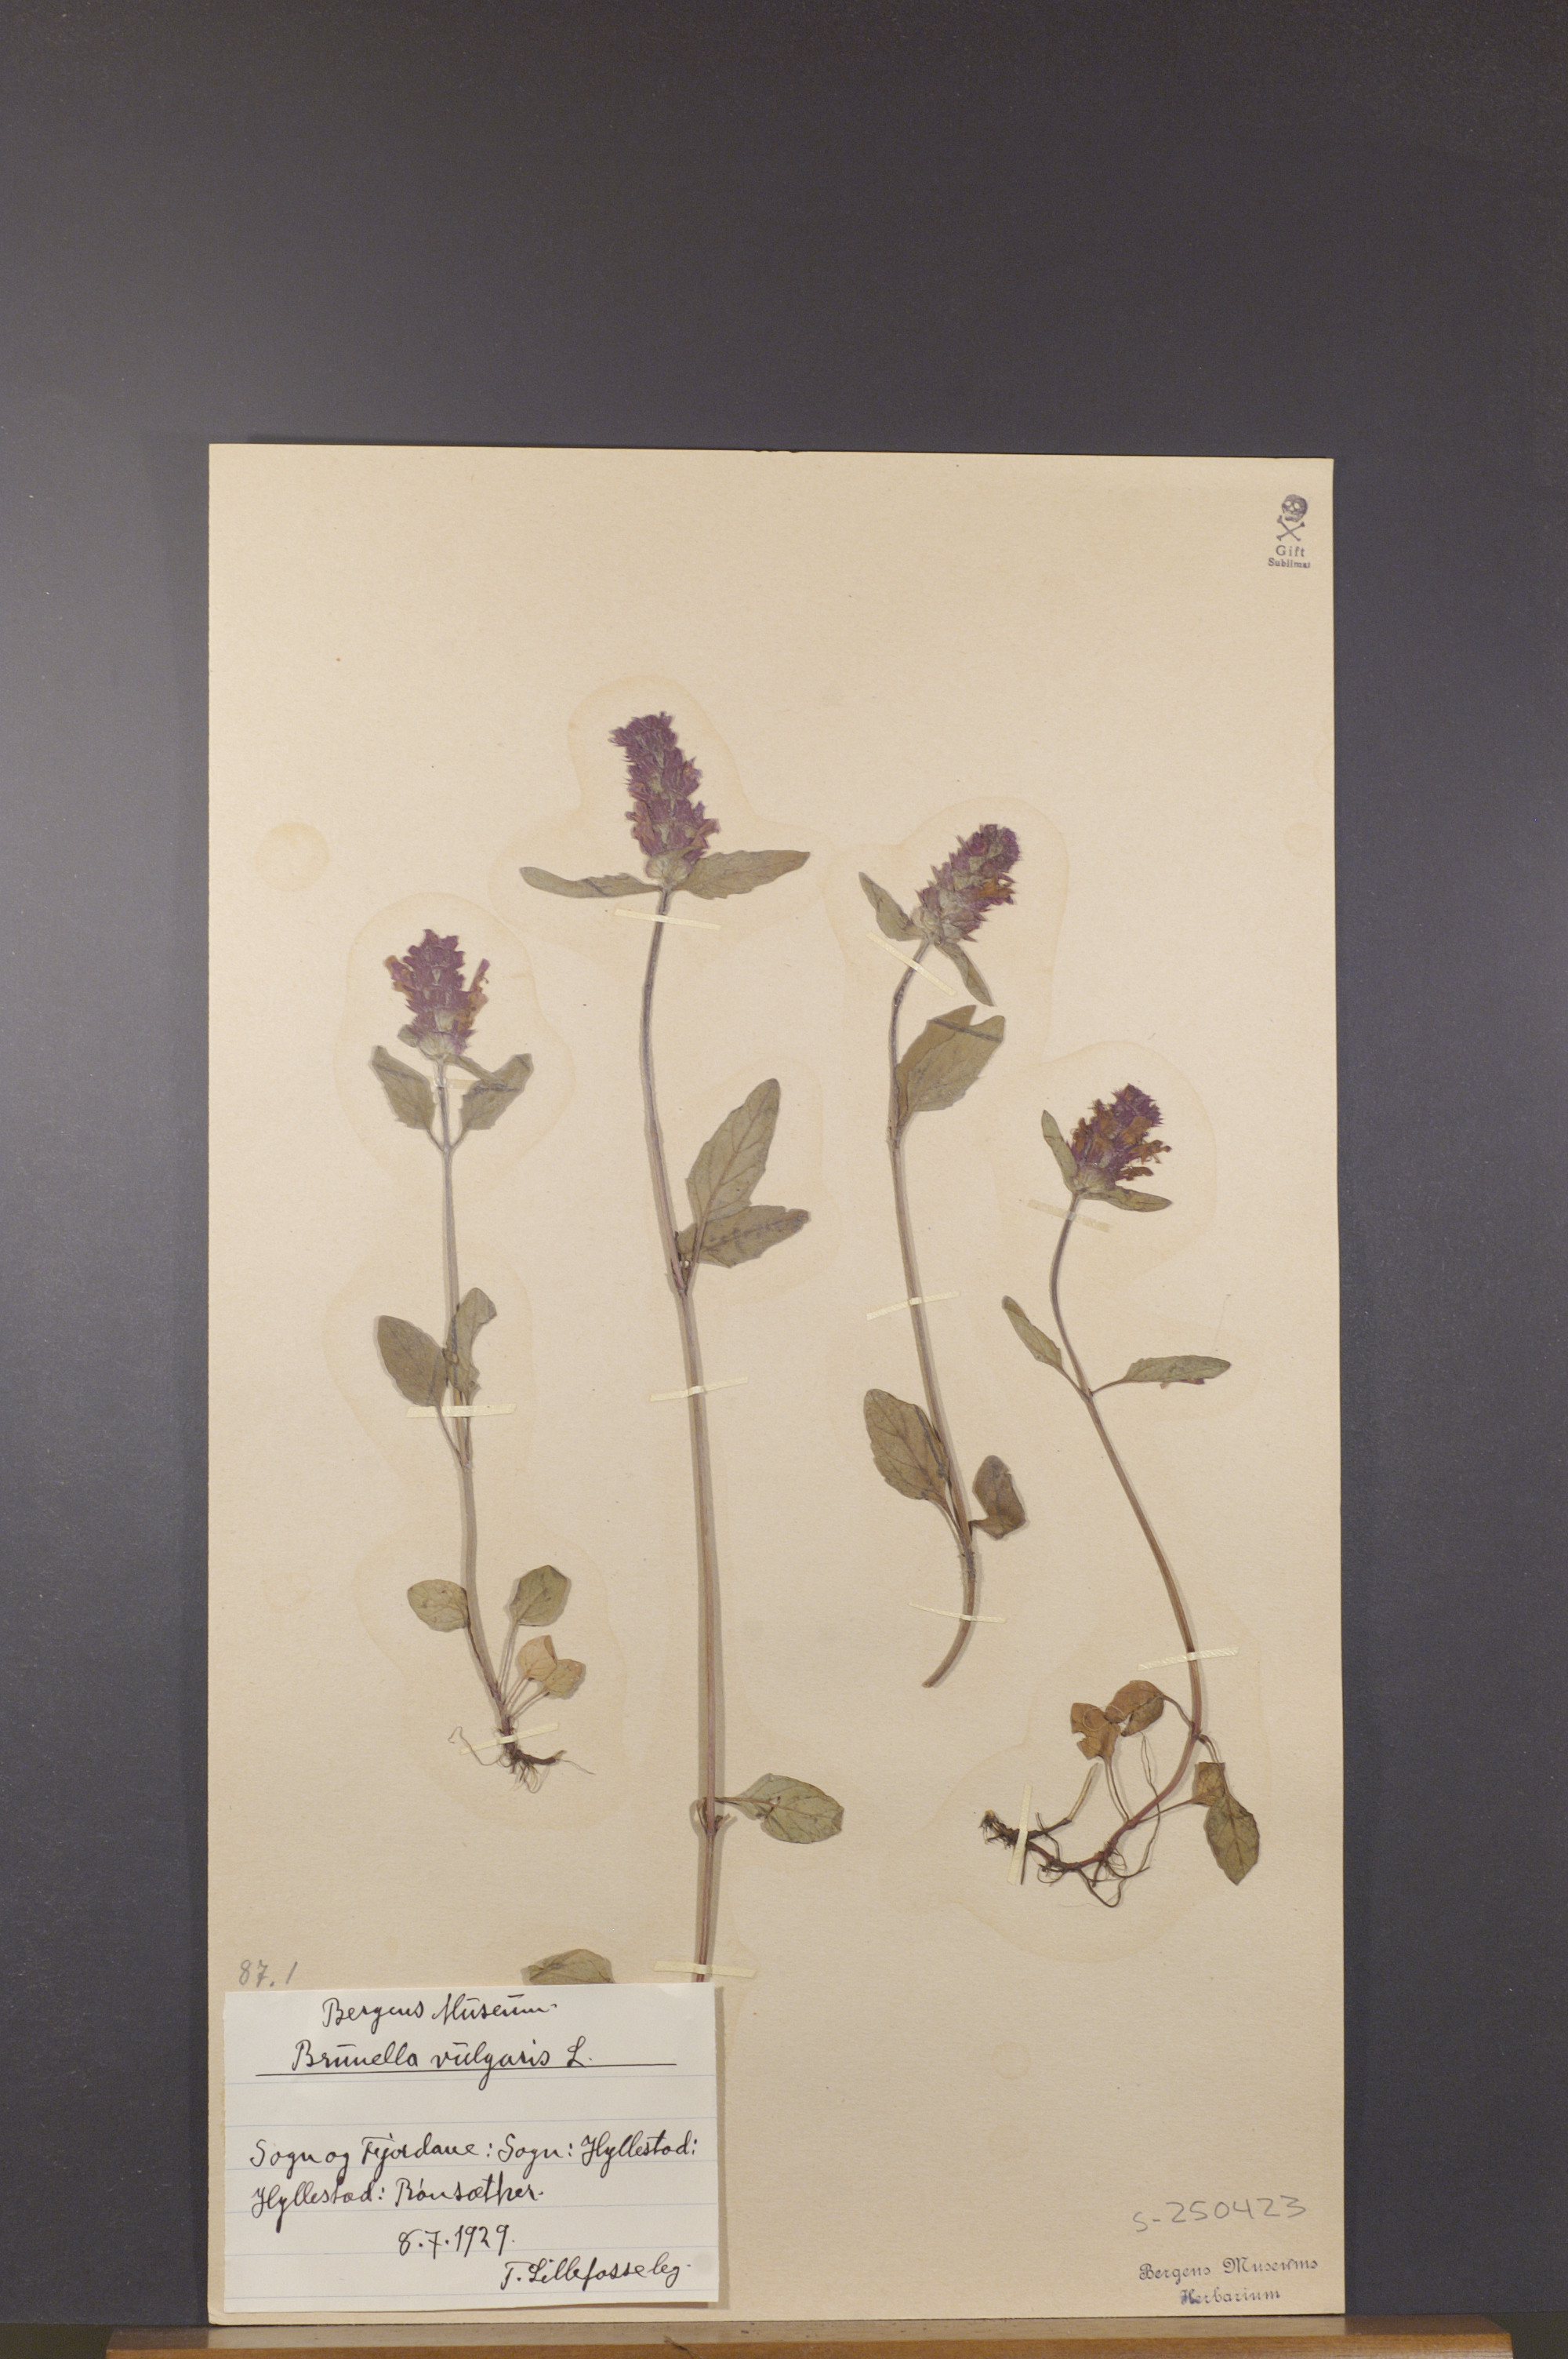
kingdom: Plantae
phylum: Tracheophyta
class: Magnoliopsida
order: Lamiales
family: Lamiaceae
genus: Prunella
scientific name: Prunella vulgaris
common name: Heal-all
